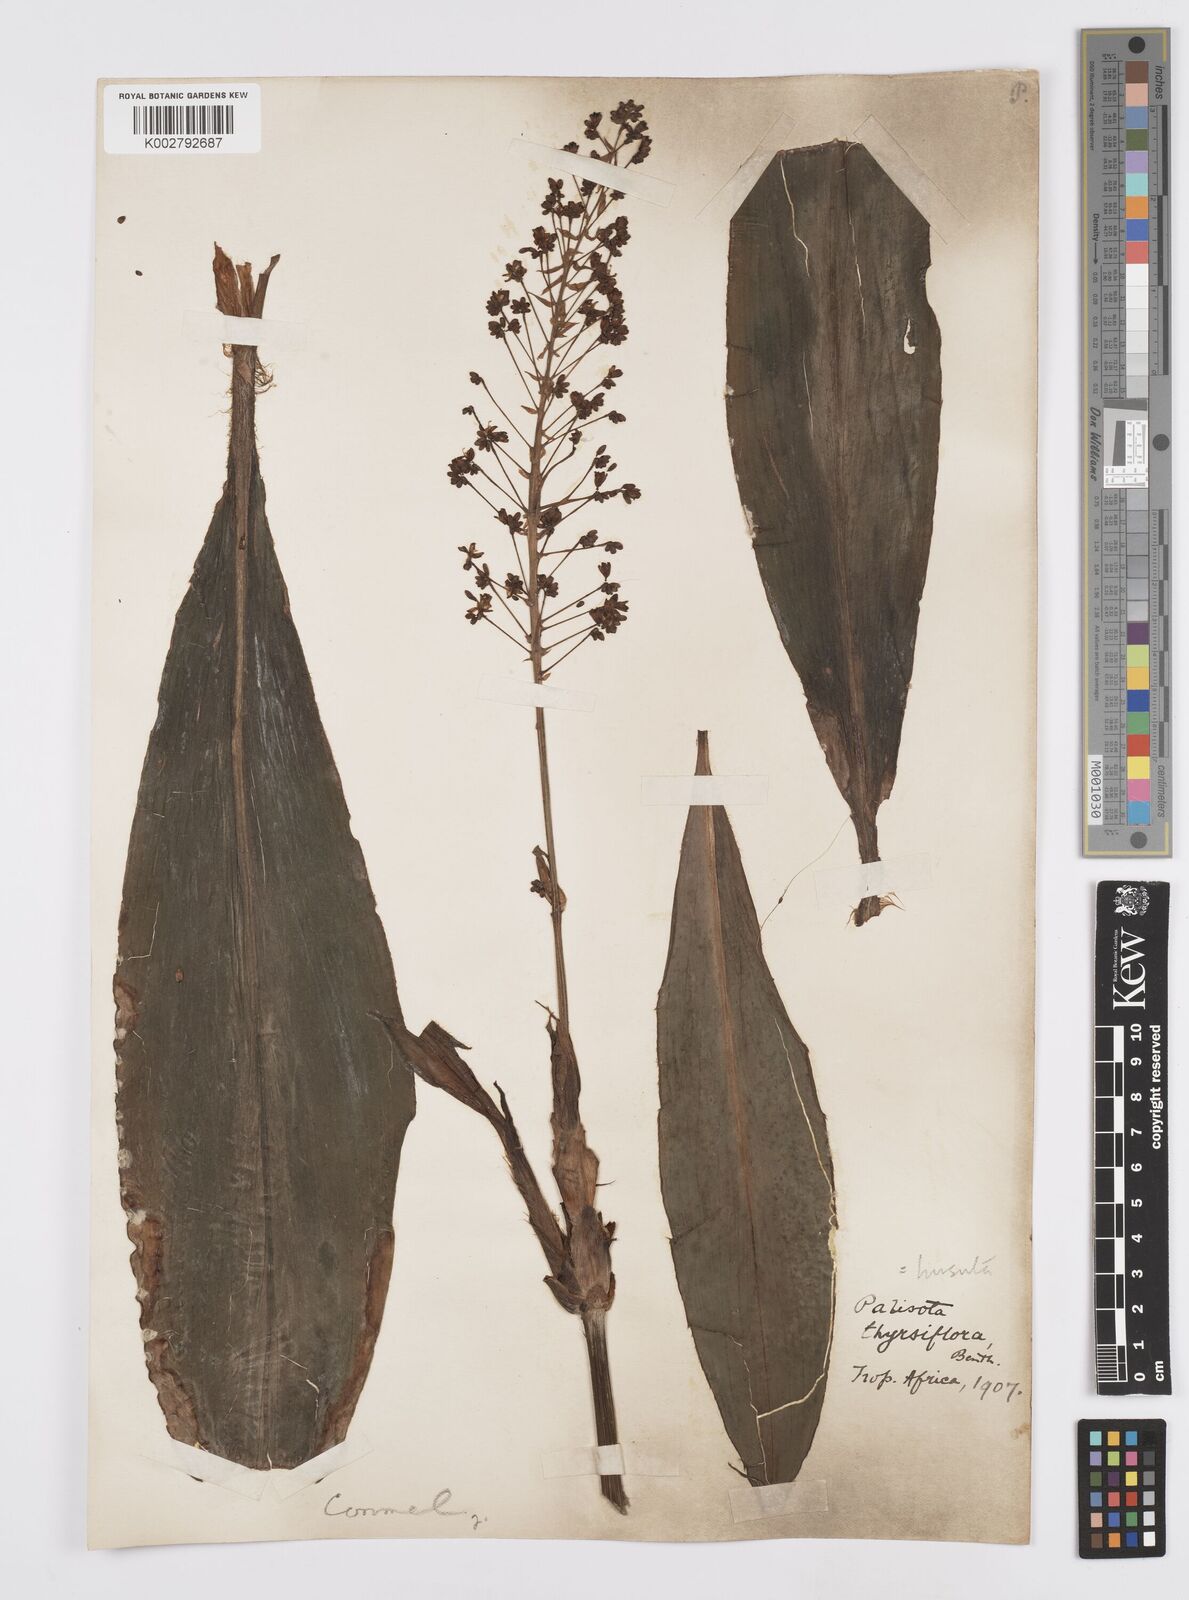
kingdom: Plantae
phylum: Tracheophyta
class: Liliopsida
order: Commelinales
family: Commelinaceae
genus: Palisota
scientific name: Palisota hirsuta
